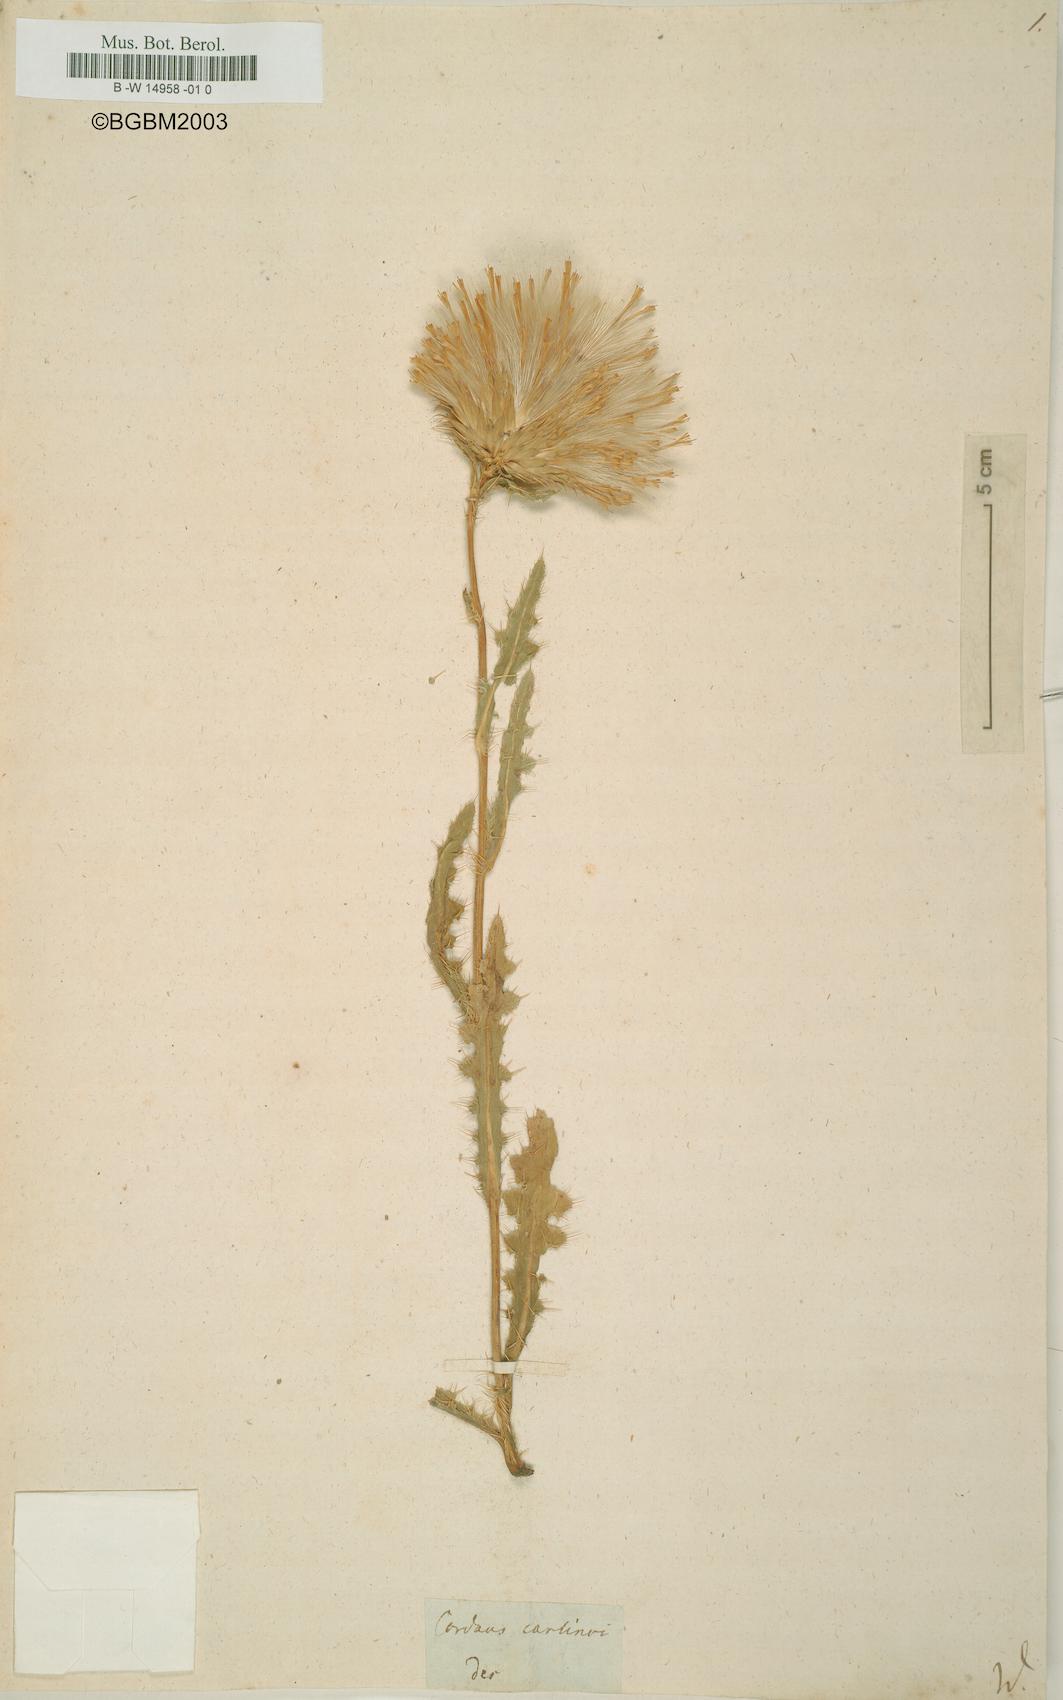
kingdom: Plantae
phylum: Tracheophyta
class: Magnoliopsida
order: Asterales
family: Asteraceae
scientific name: Asteraceae
